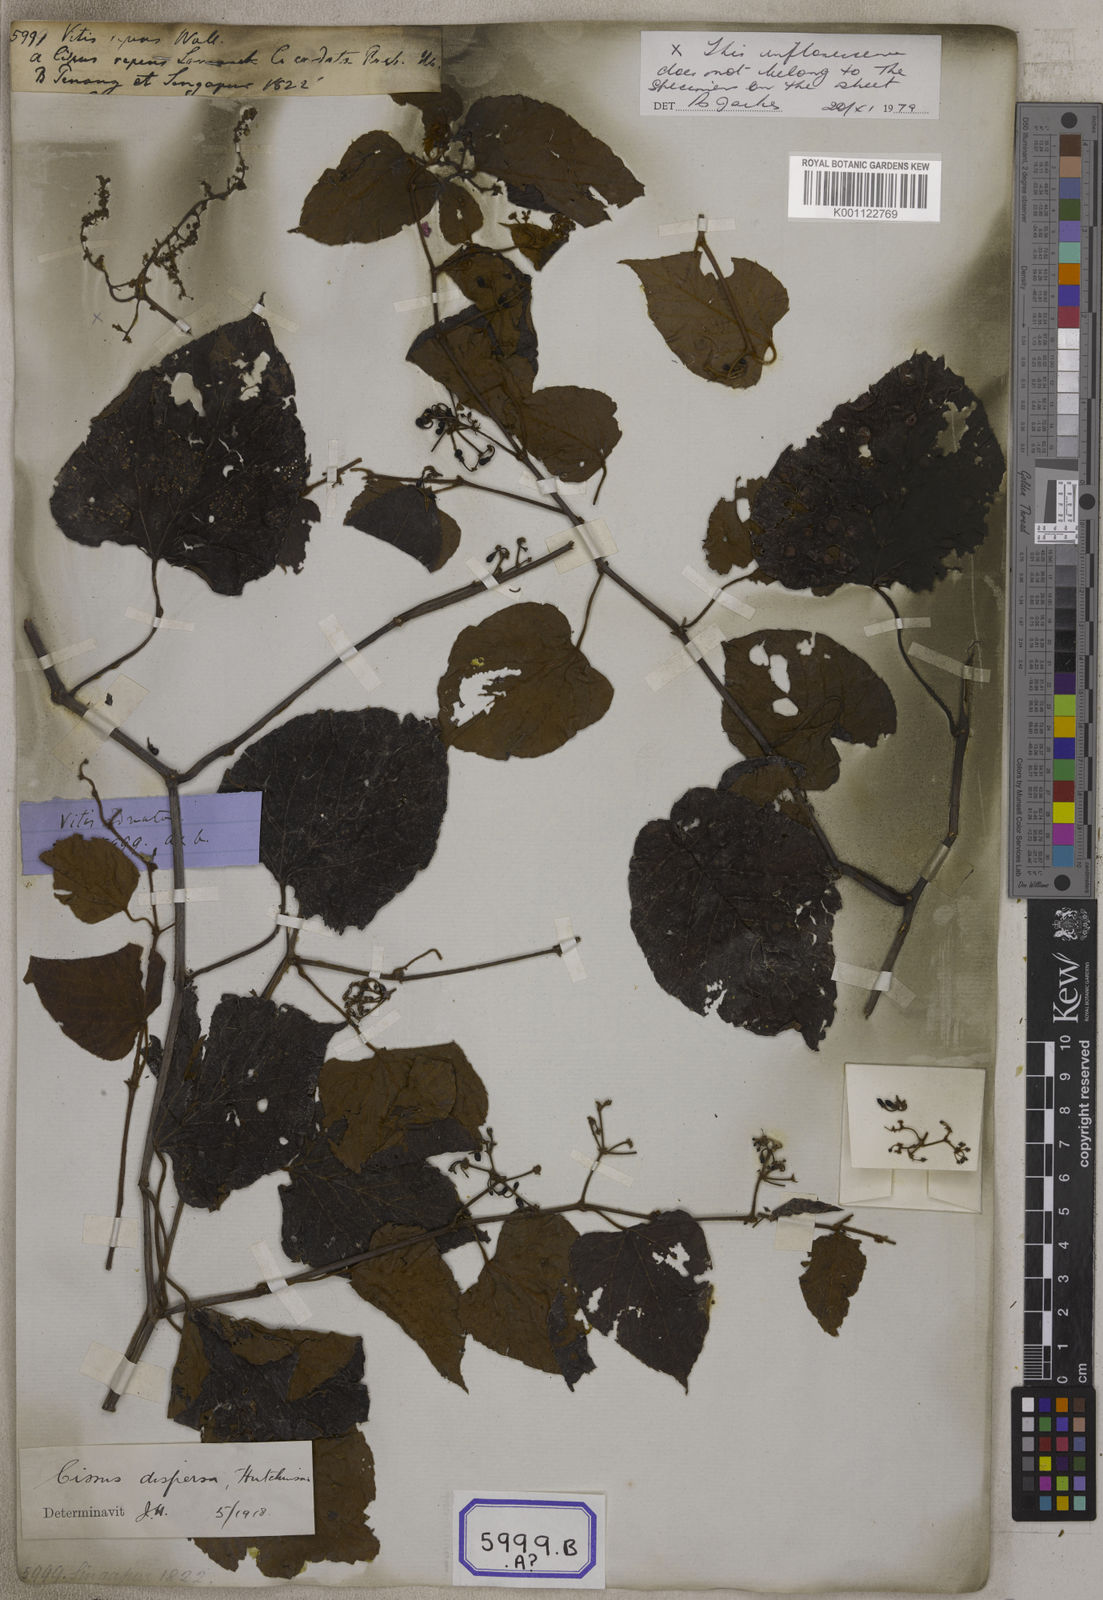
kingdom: Plantae
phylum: Tracheophyta
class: Magnoliopsida
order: Vitales
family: Vitaceae
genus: Cissus
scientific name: Cissus adnata
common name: Heart-leaf-grape
